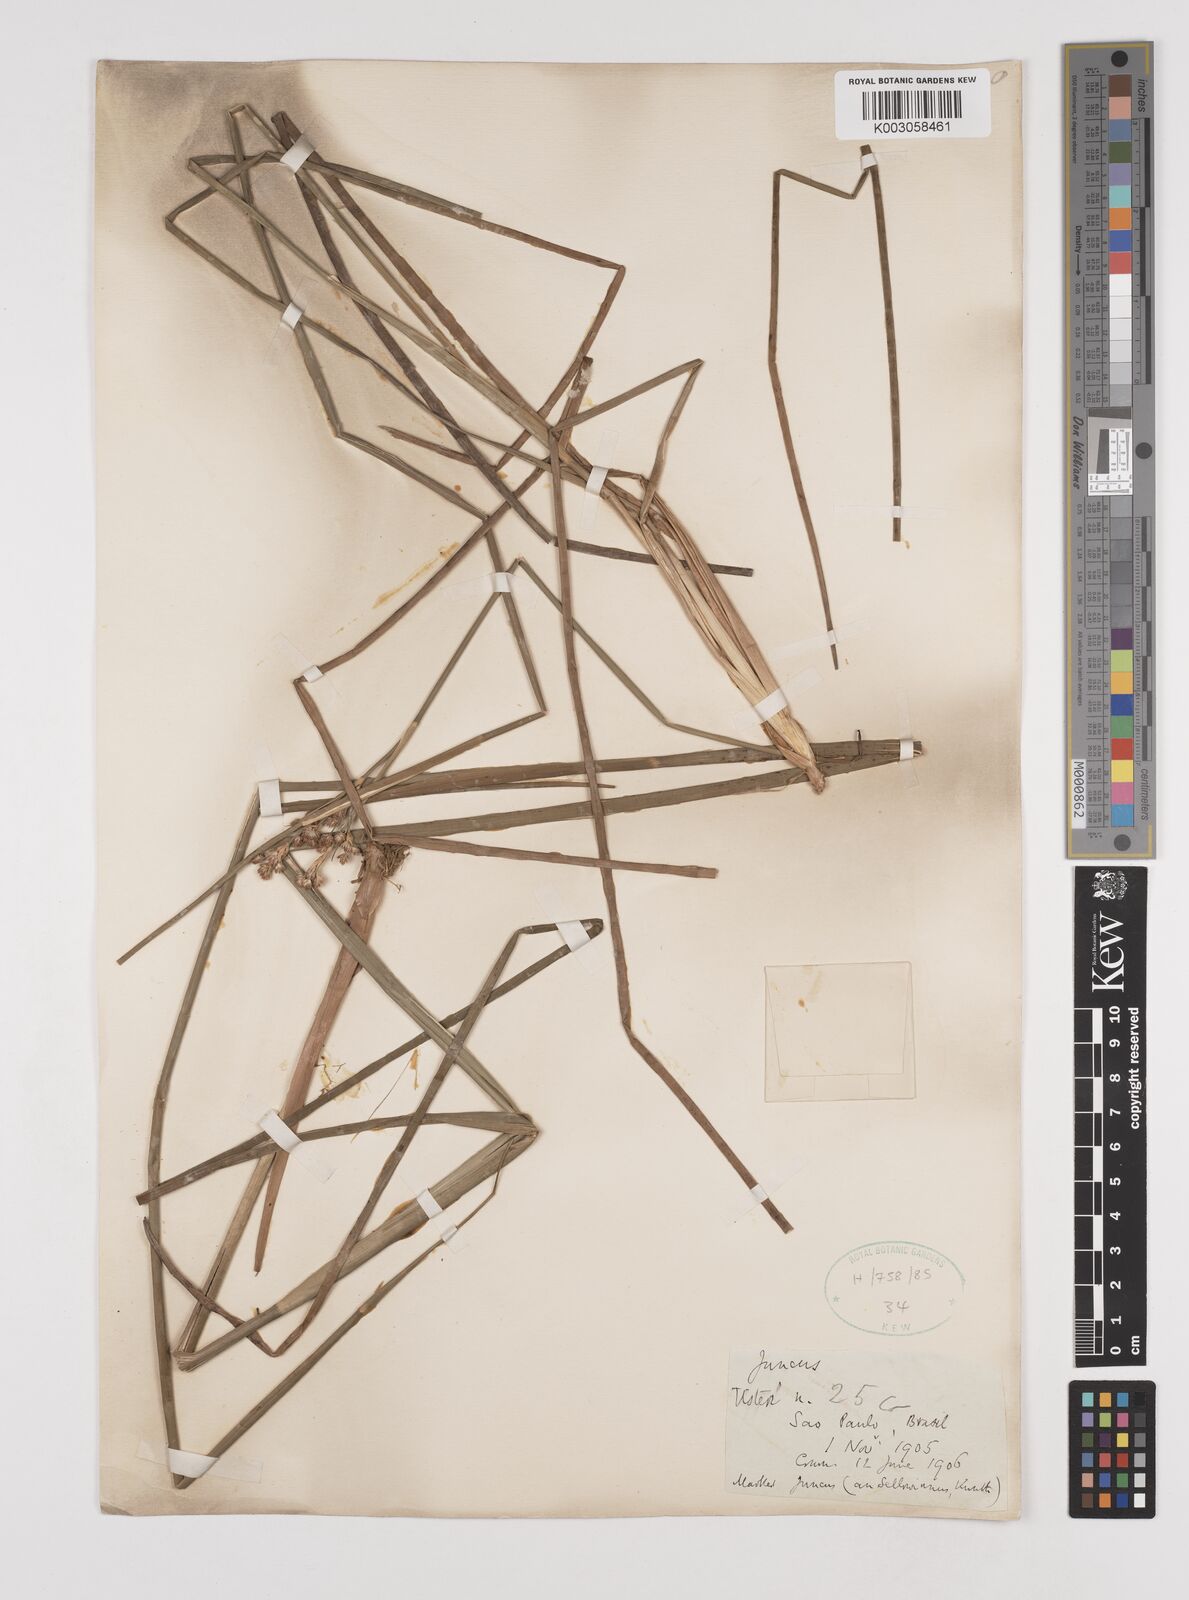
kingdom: Plantae
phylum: Tracheophyta
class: Liliopsida
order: Poales
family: Juncaceae
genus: Juncus
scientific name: Juncus
